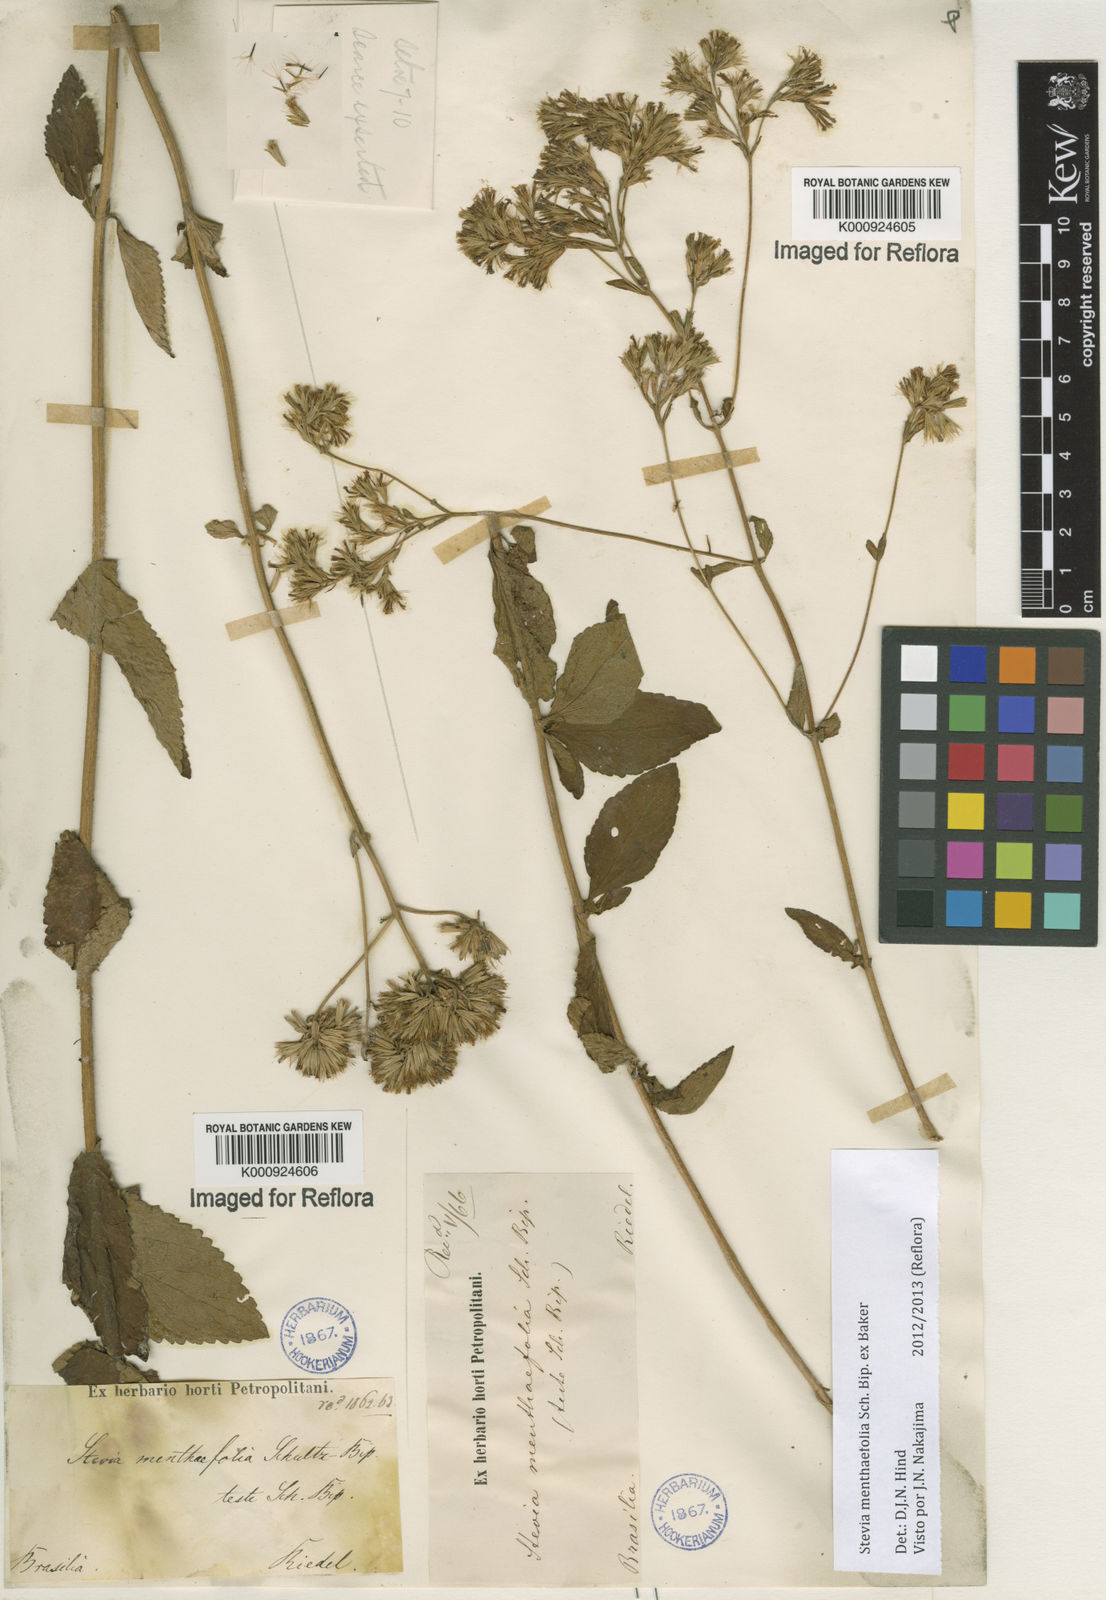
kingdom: Plantae
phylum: Tracheophyta
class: Magnoliopsida
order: Asterales
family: Asteraceae
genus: Stevia
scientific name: Stevia menthifolia
